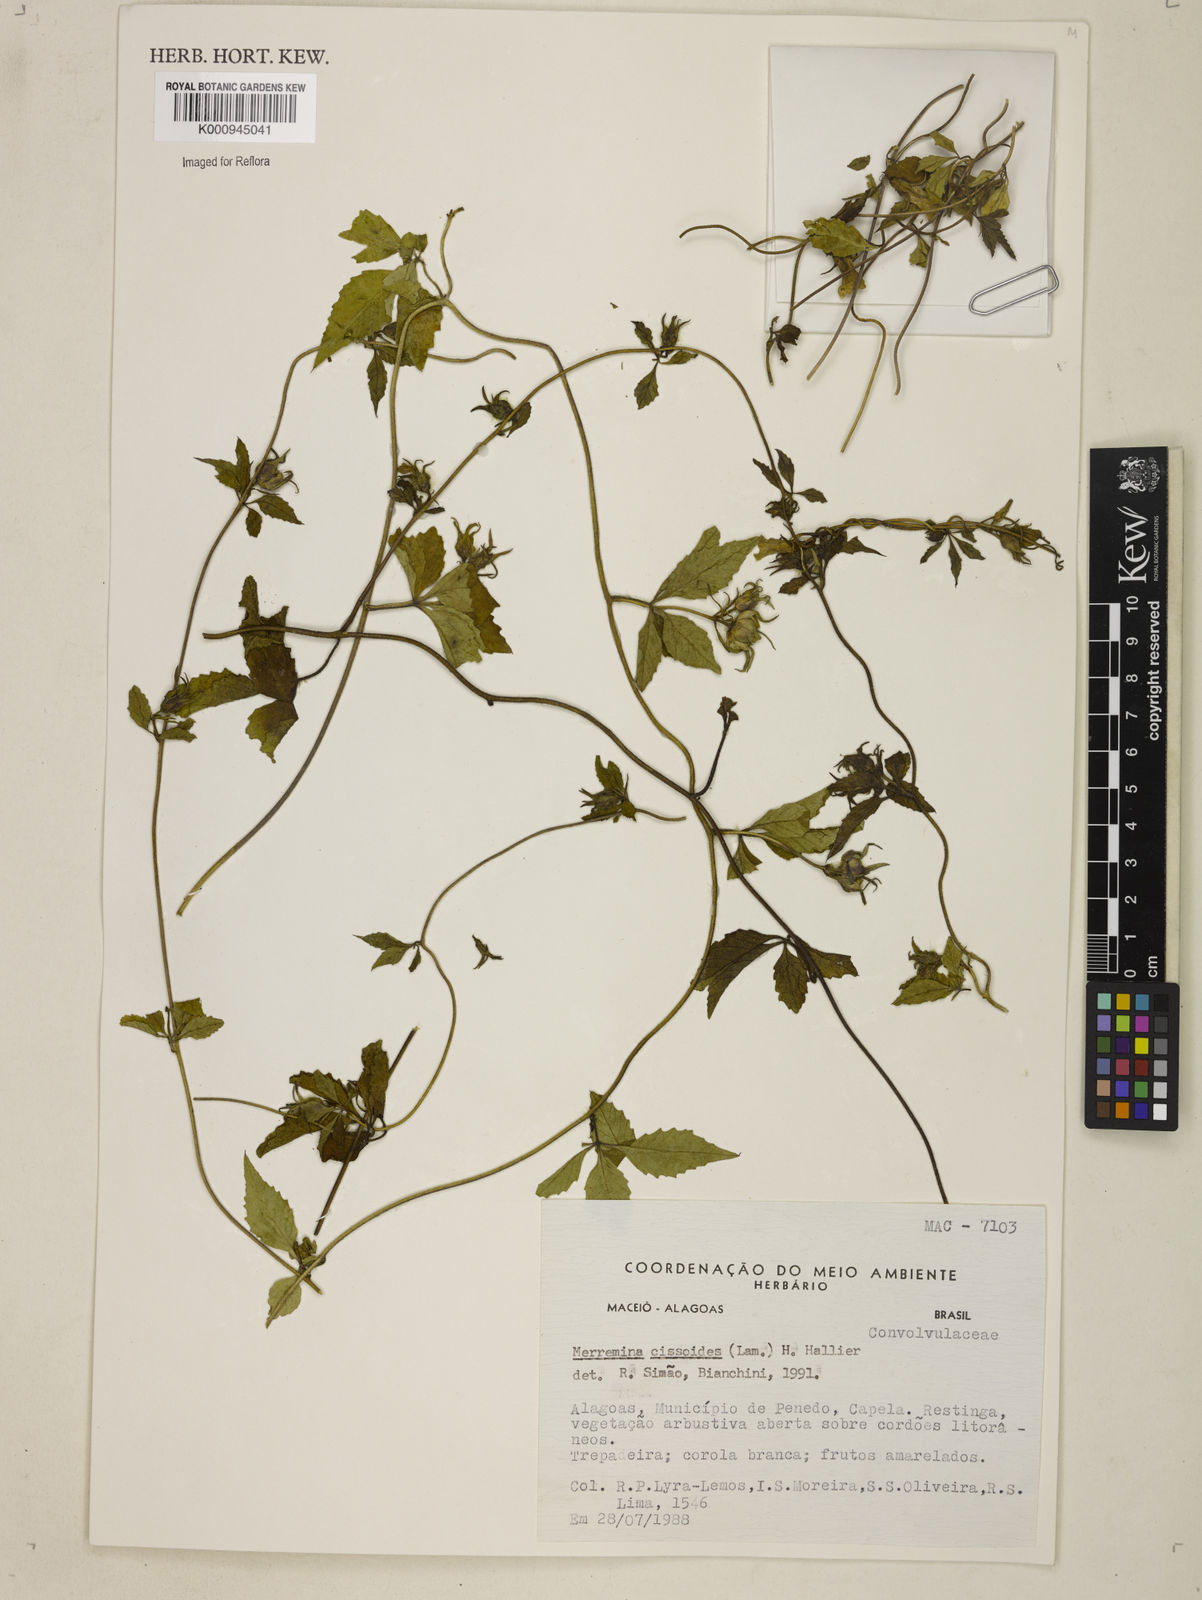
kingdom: Plantae
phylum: Tracheophyta
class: Magnoliopsida
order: Solanales
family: Convolvulaceae
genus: Distimake
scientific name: Distimake cissoides
